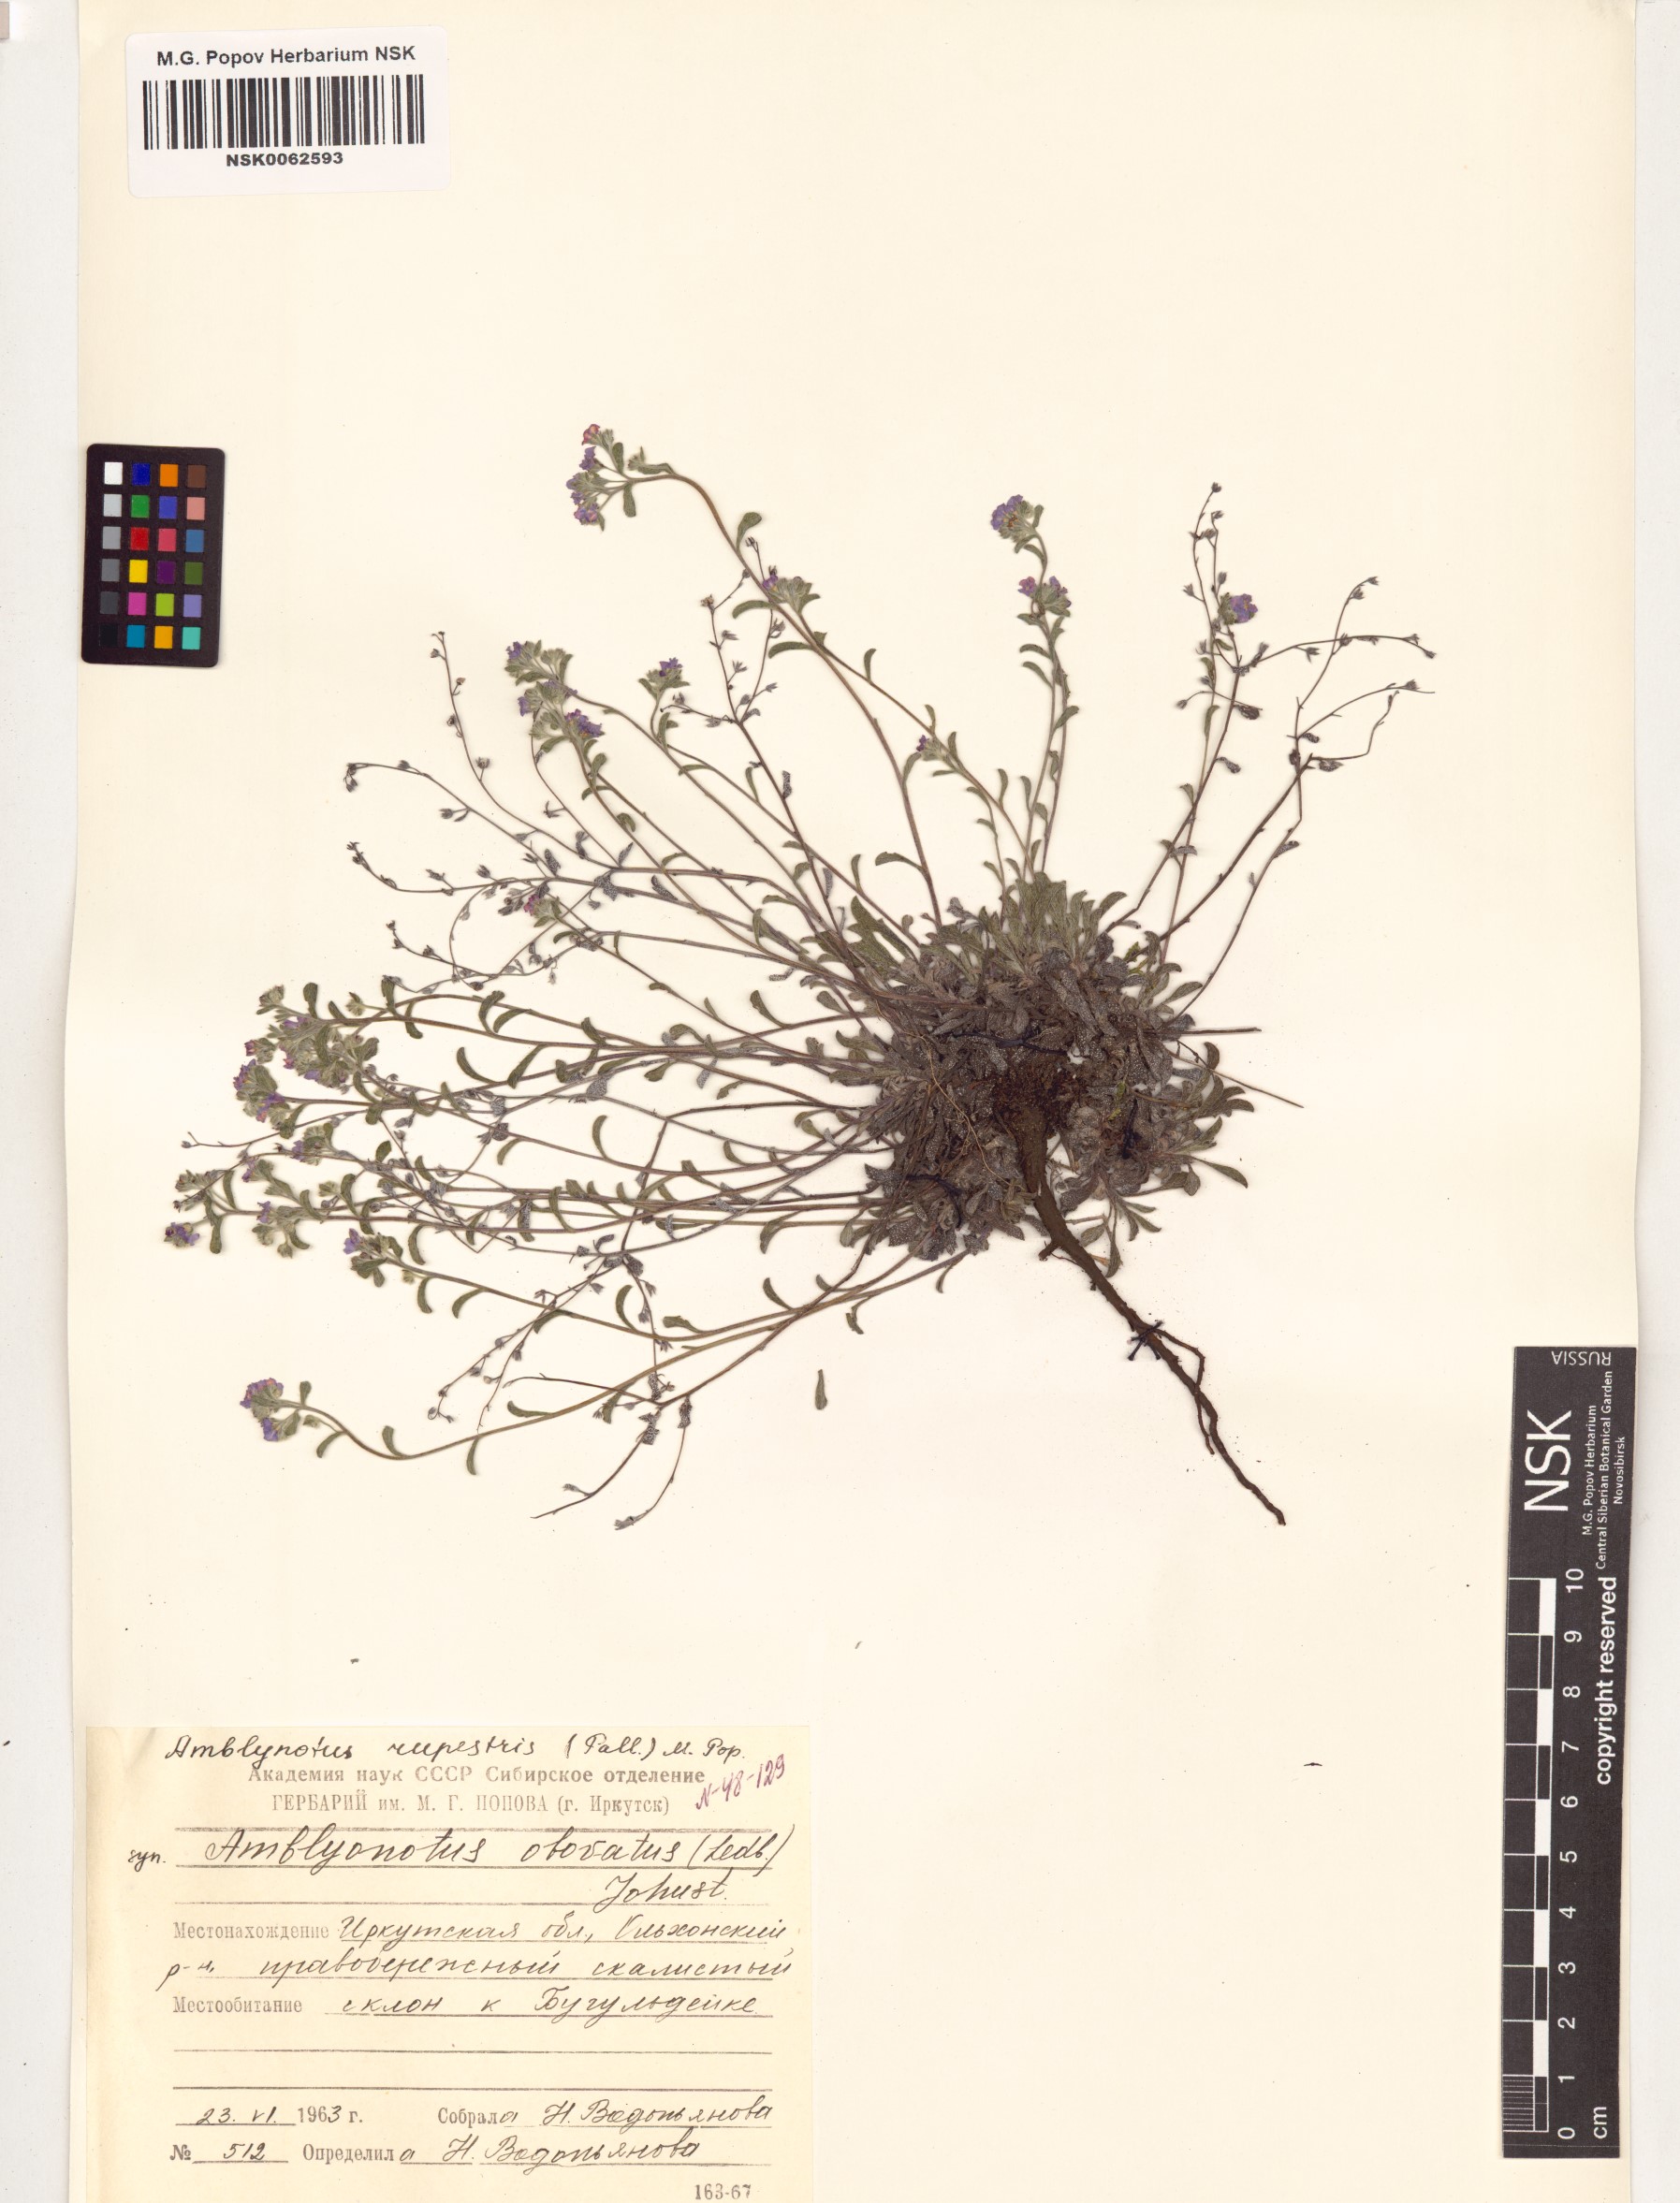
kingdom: Plantae
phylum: Tracheophyta
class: Magnoliopsida
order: Boraginales
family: Boraginaceae
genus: Eritrichium
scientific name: Eritrichium rupestre
